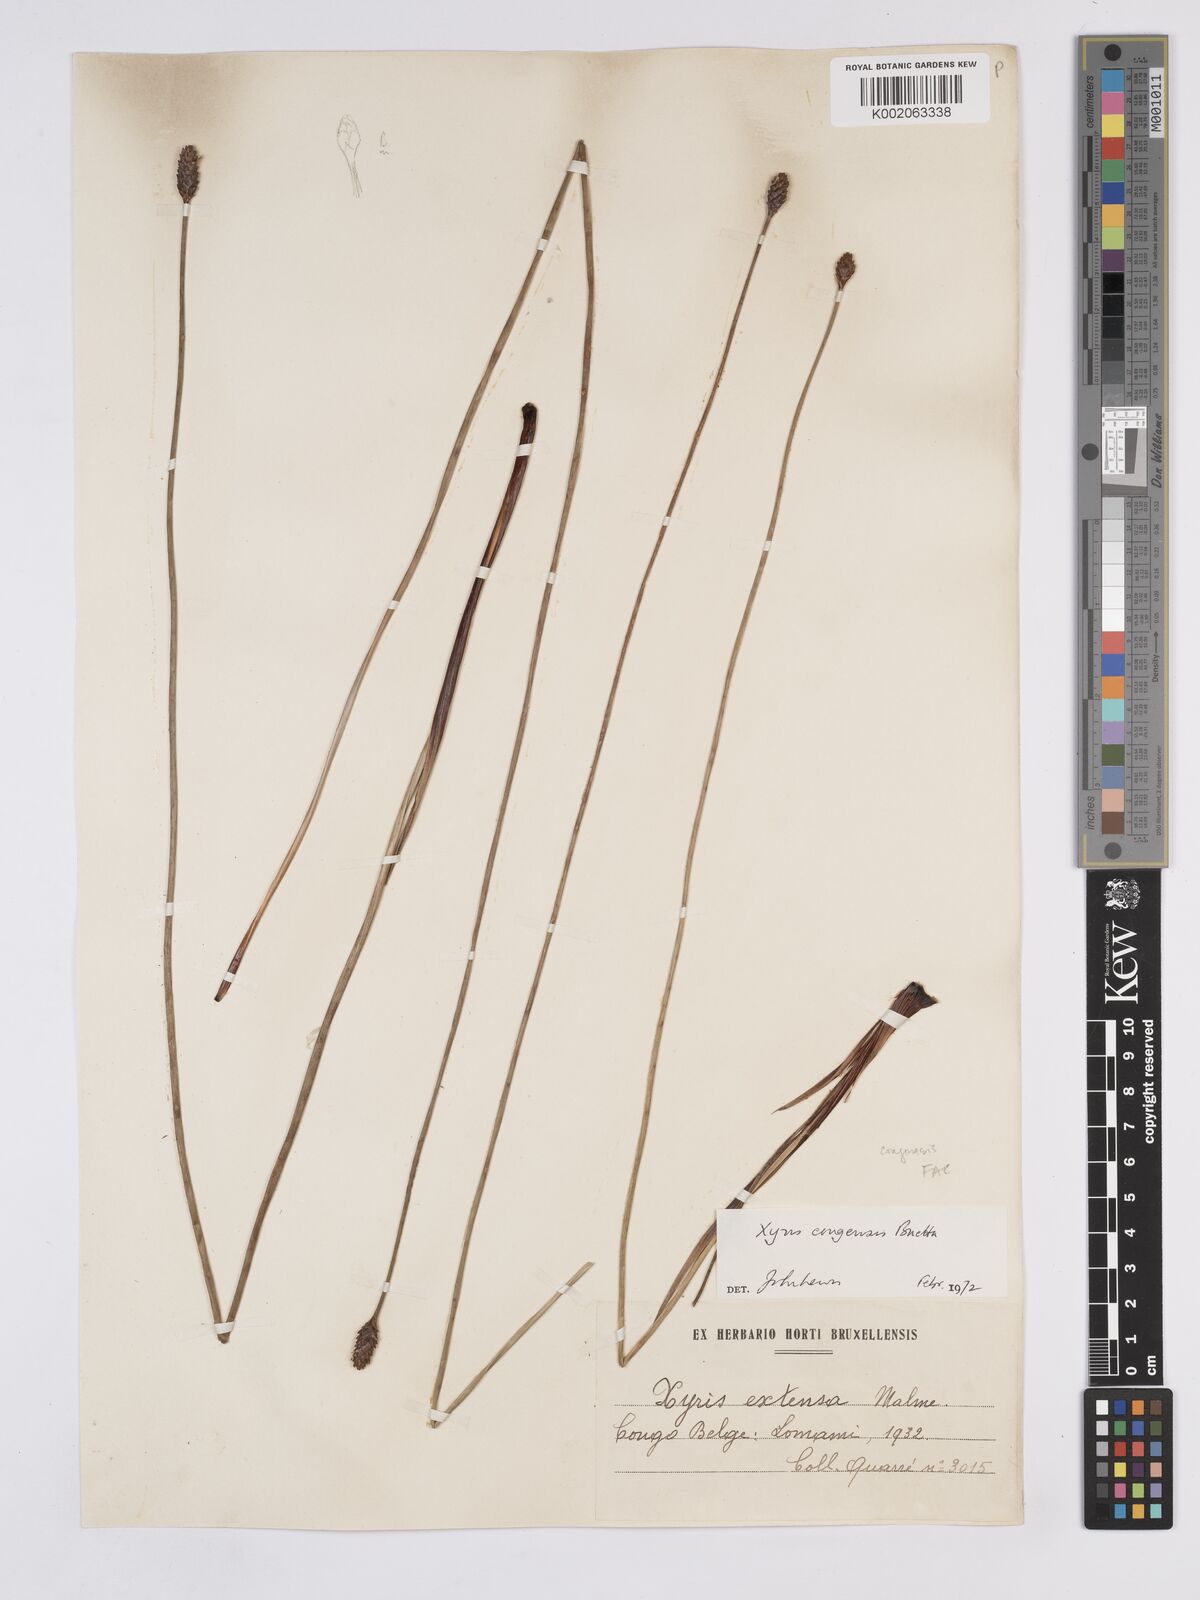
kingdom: Plantae
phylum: Tracheophyta
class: Liliopsida
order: Poales
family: Xyridaceae
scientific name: Xyridaceae
